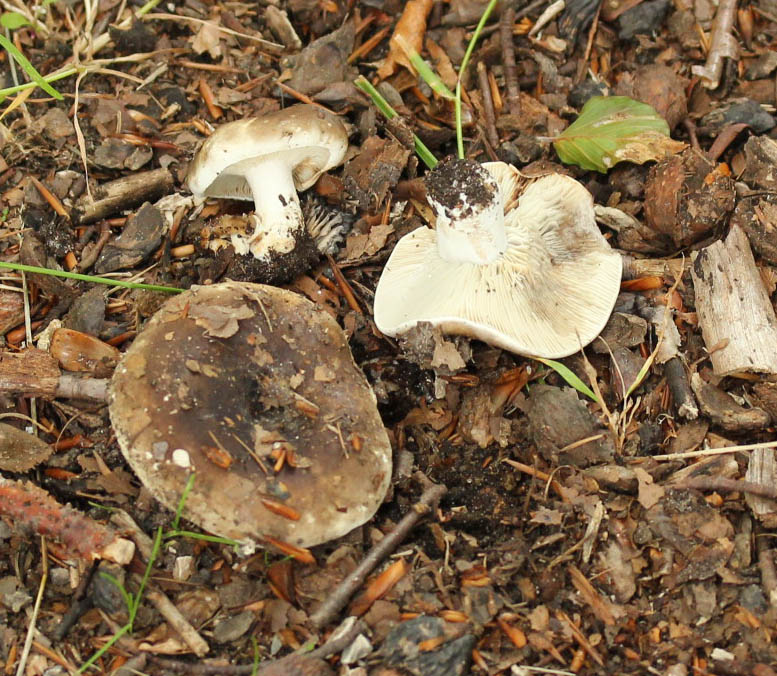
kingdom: Fungi
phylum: Basidiomycota
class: Agaricomycetes
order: Russulales
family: Russulaceae
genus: Russula
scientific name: Russula densifolia
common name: tætbladet skørhat
